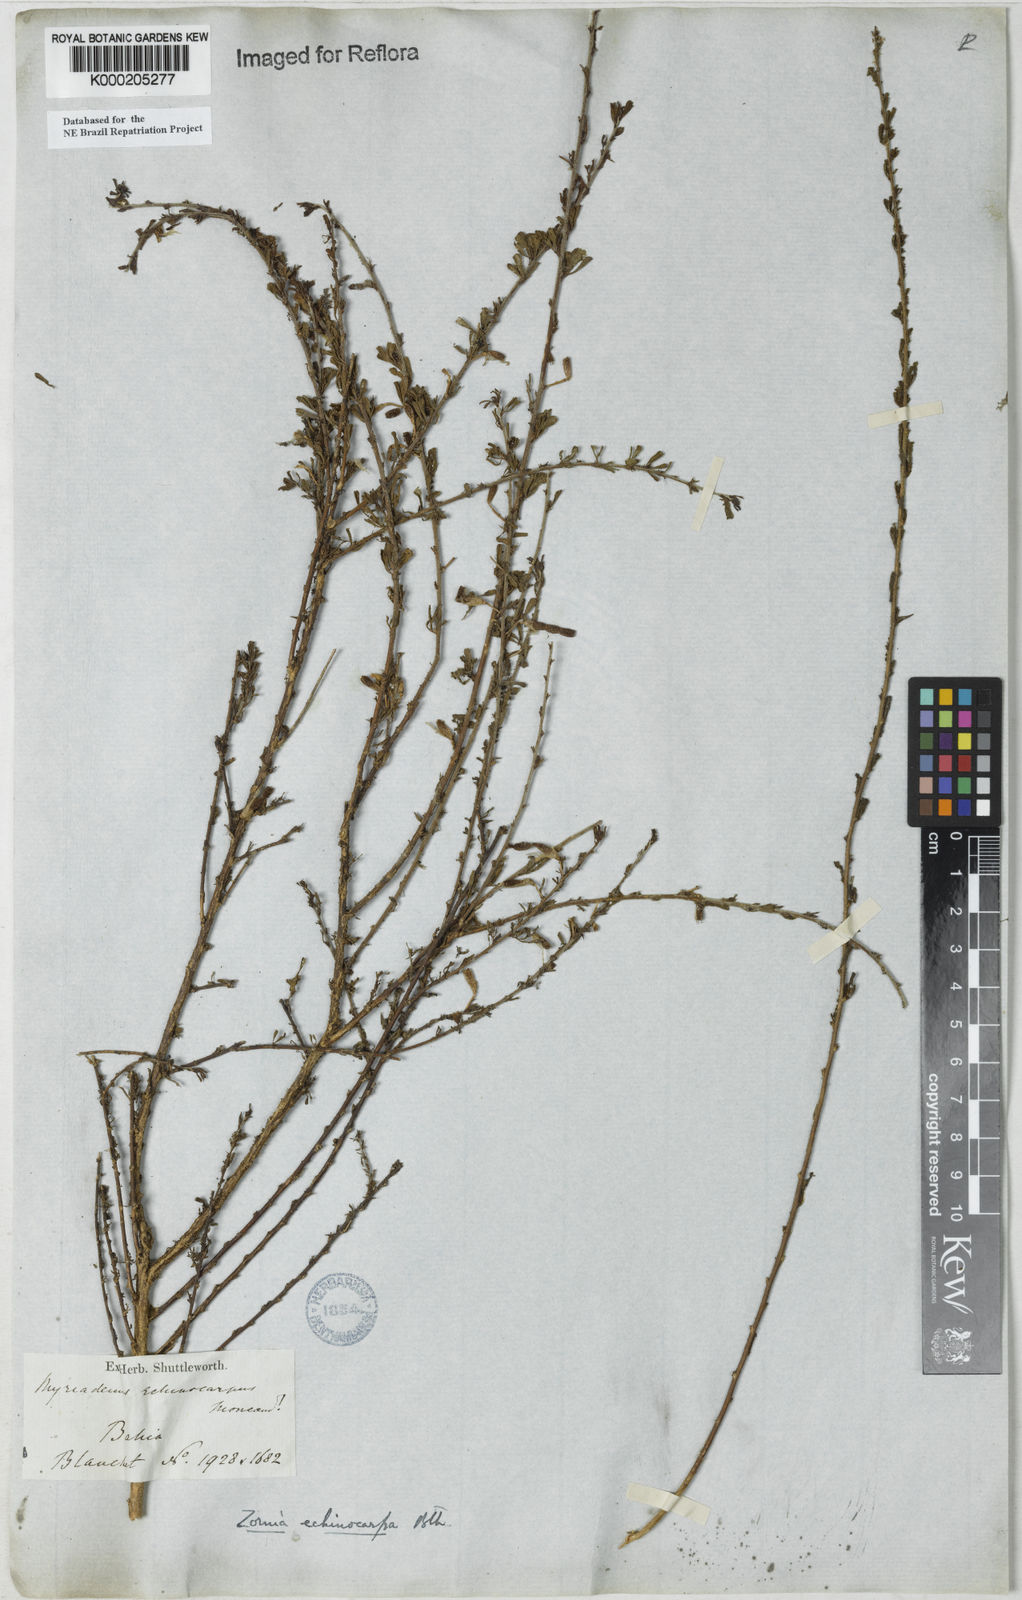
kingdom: Plantae
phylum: Tracheophyta
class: Magnoliopsida
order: Fabales
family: Fabaceae
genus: Zornia
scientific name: Zornia echinocarpa
